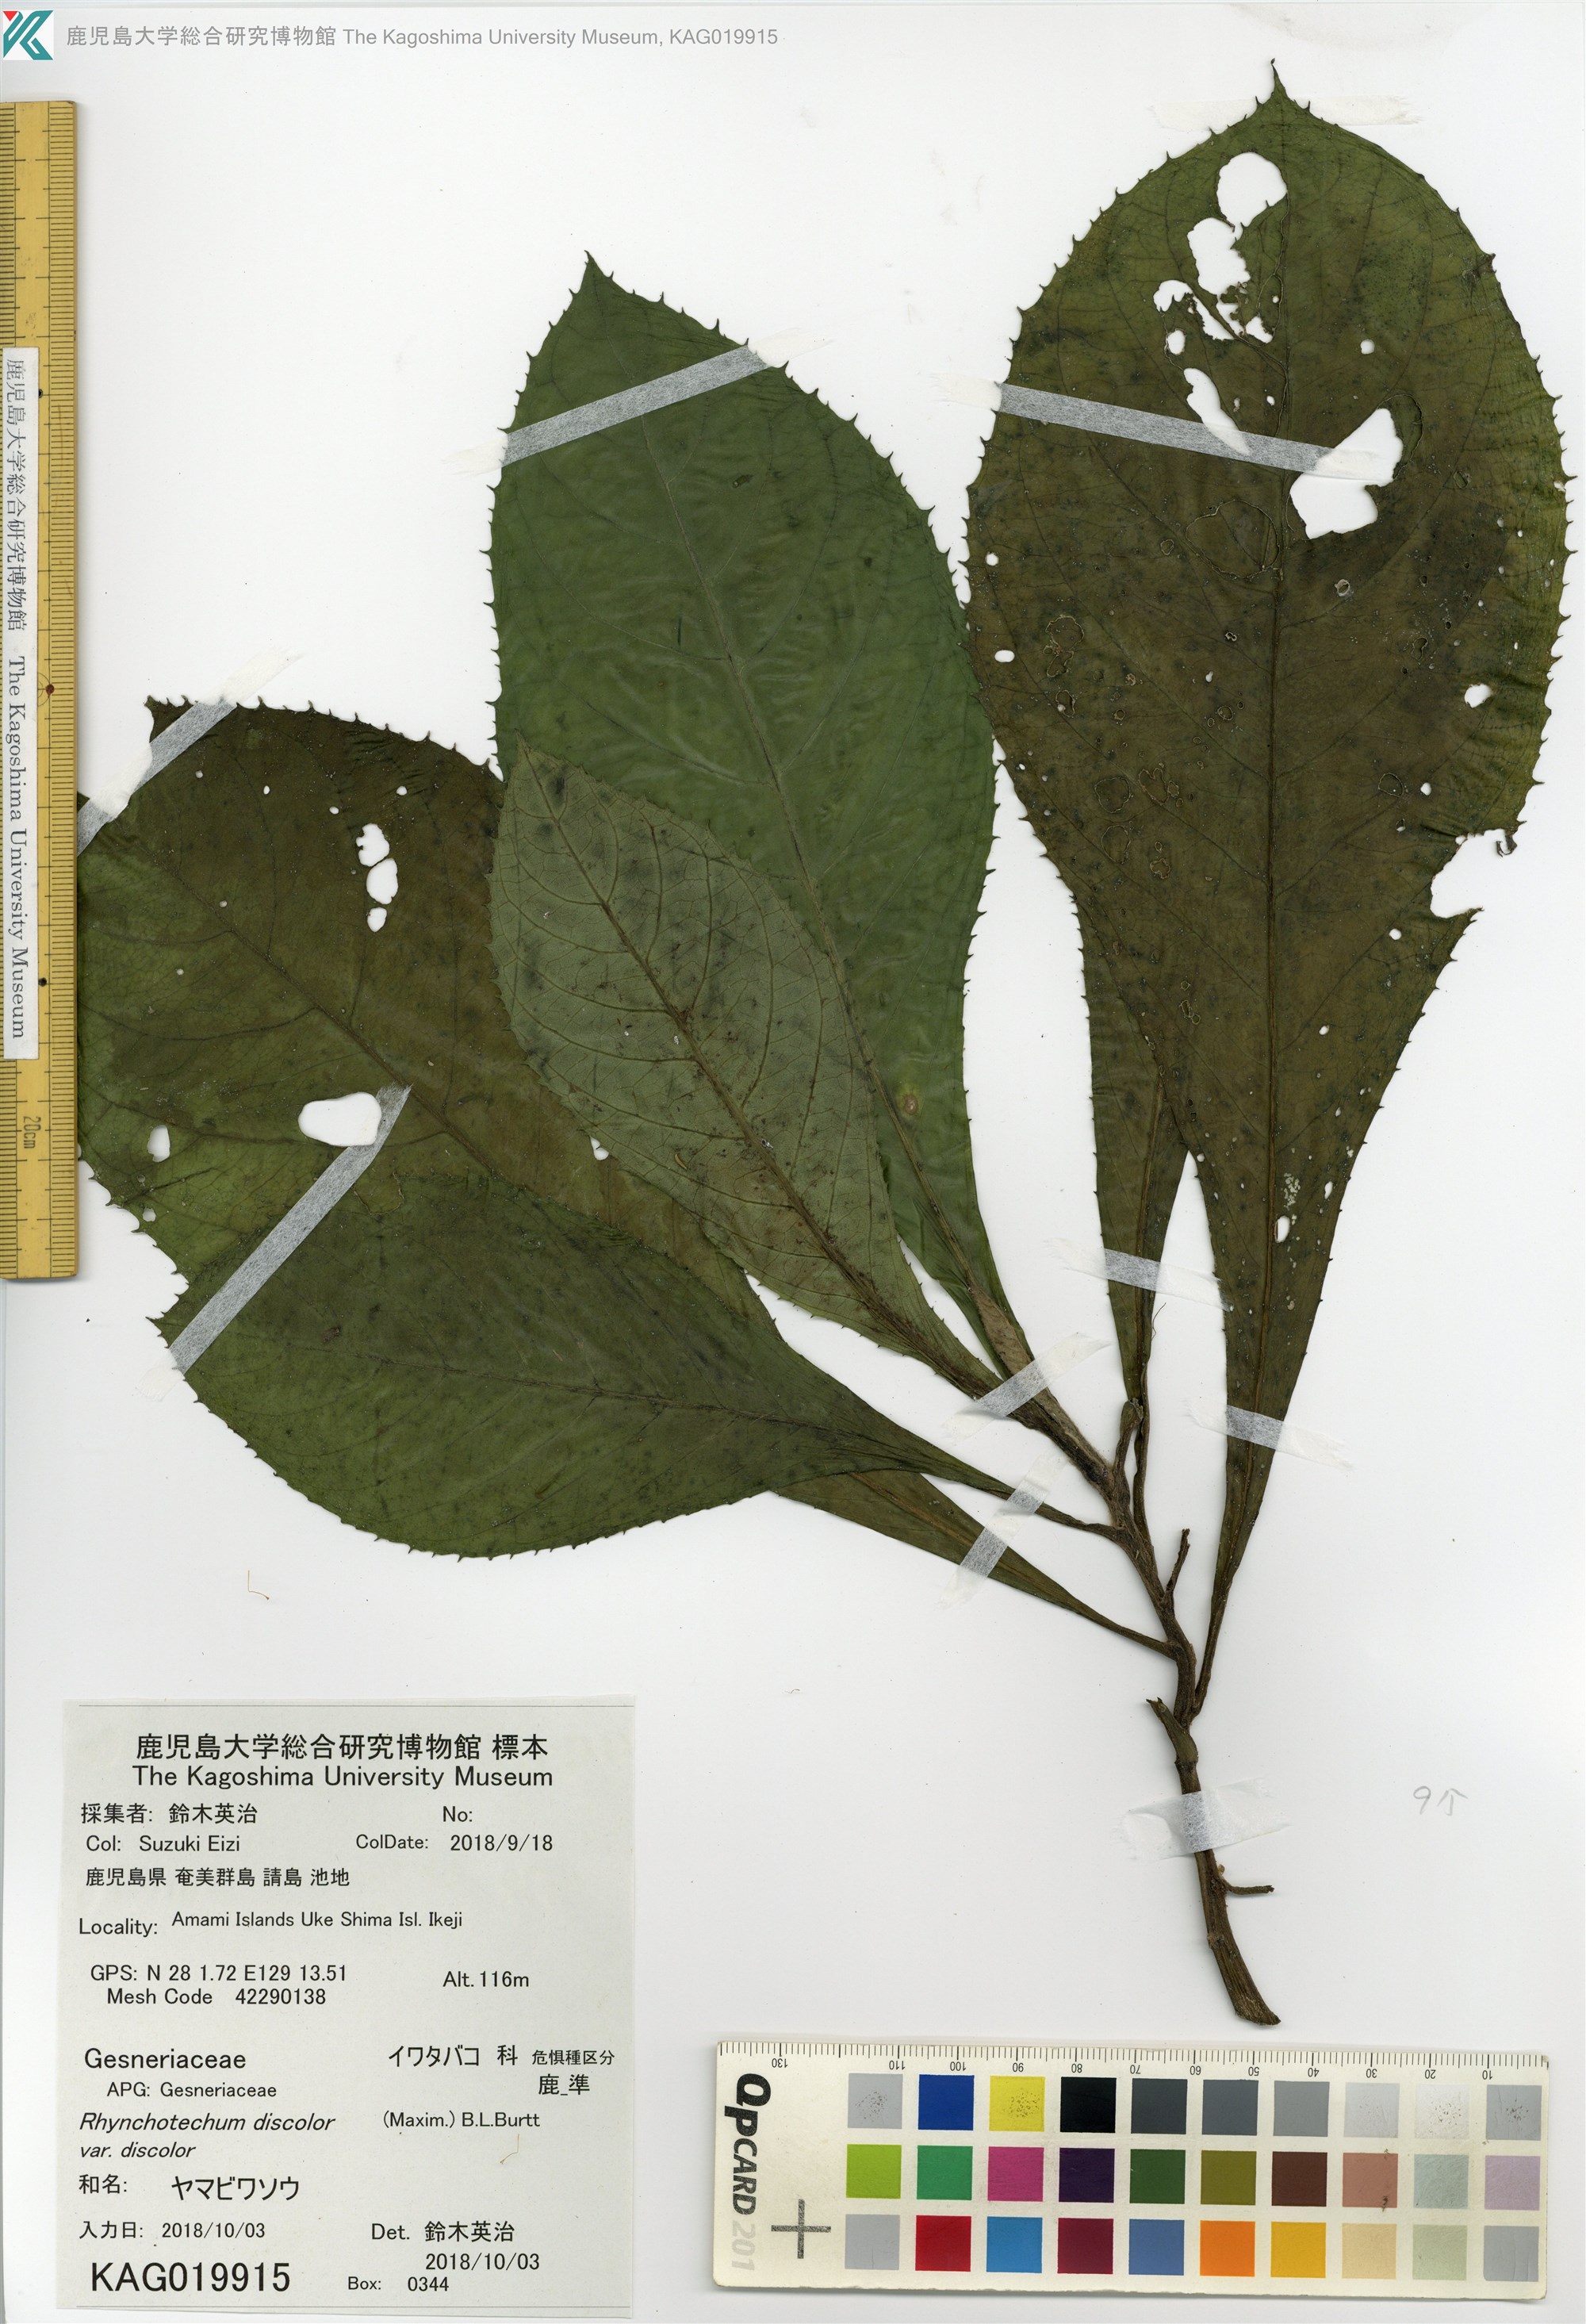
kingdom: Plantae
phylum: Tracheophyta
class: Magnoliopsida
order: Asterales
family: Asteraceae
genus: Blumea
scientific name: Blumea conspicua
